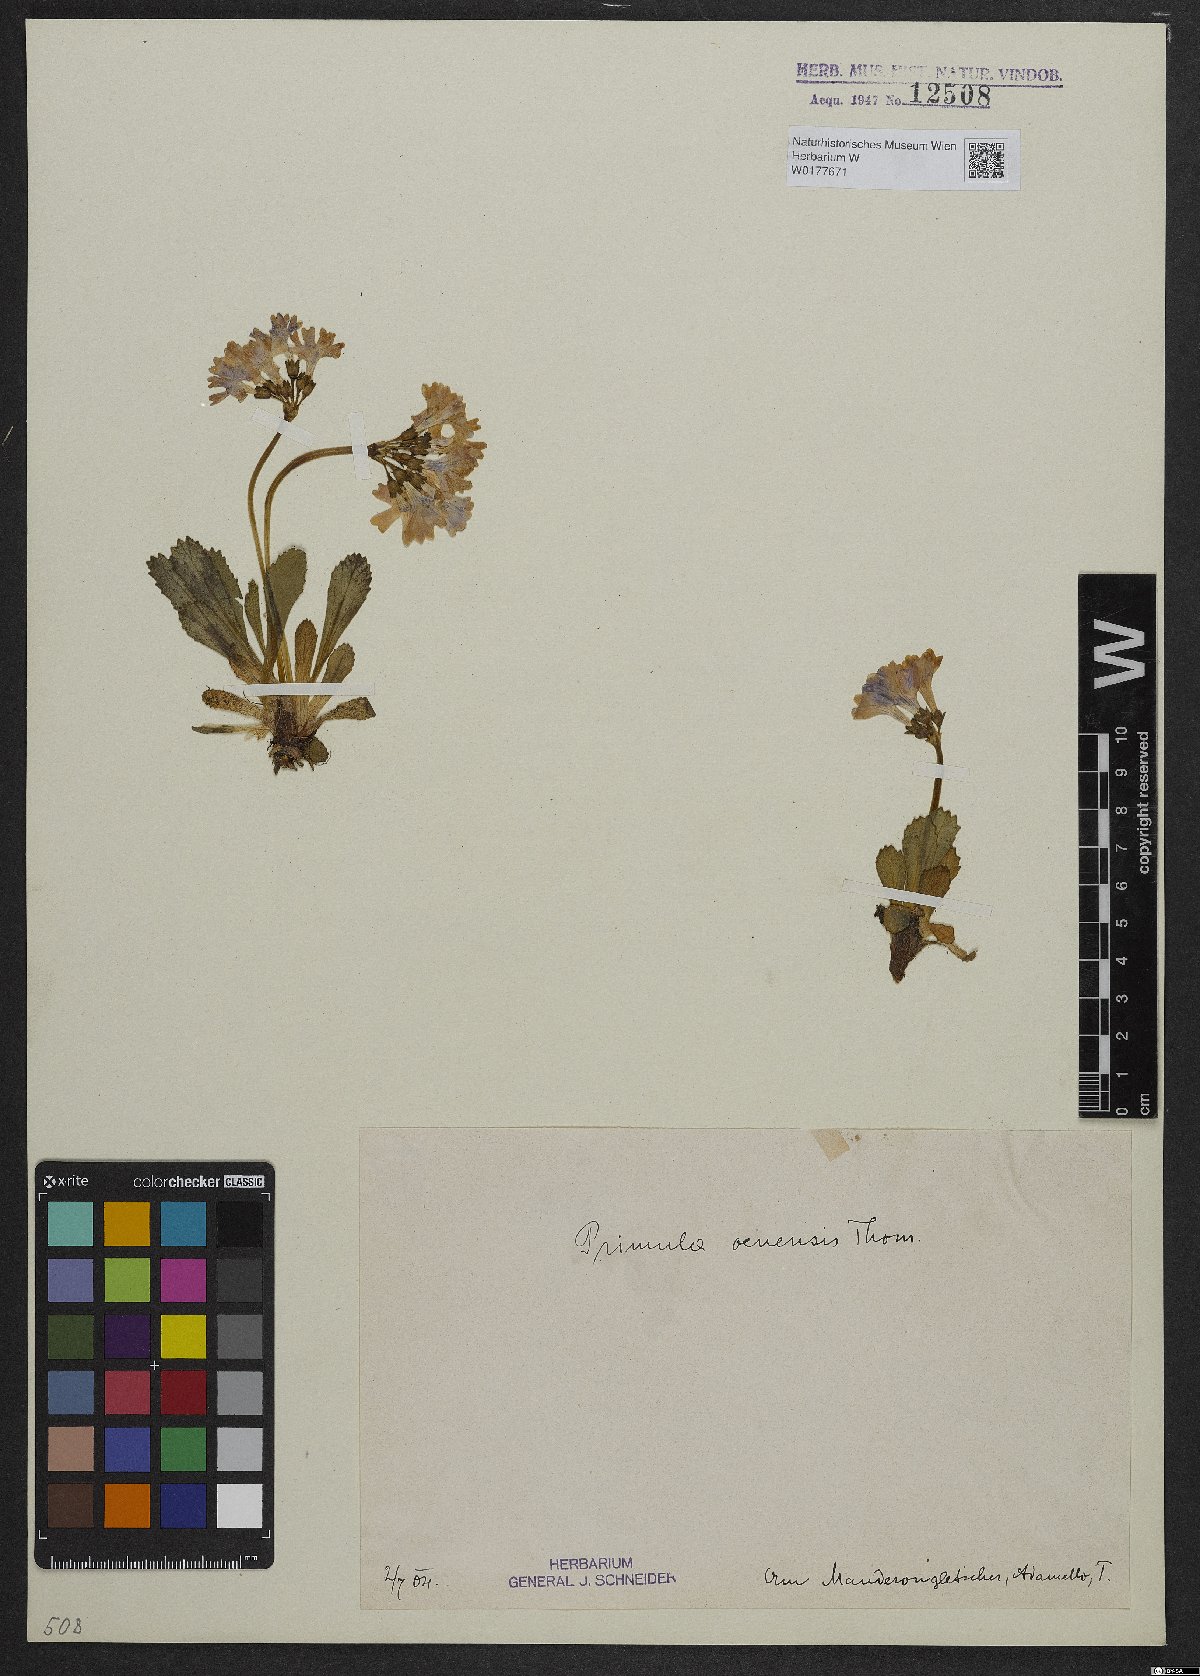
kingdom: Plantae
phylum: Tracheophyta
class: Magnoliopsida
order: Ericales
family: Primulaceae
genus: Primula
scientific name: Primula daonensis
